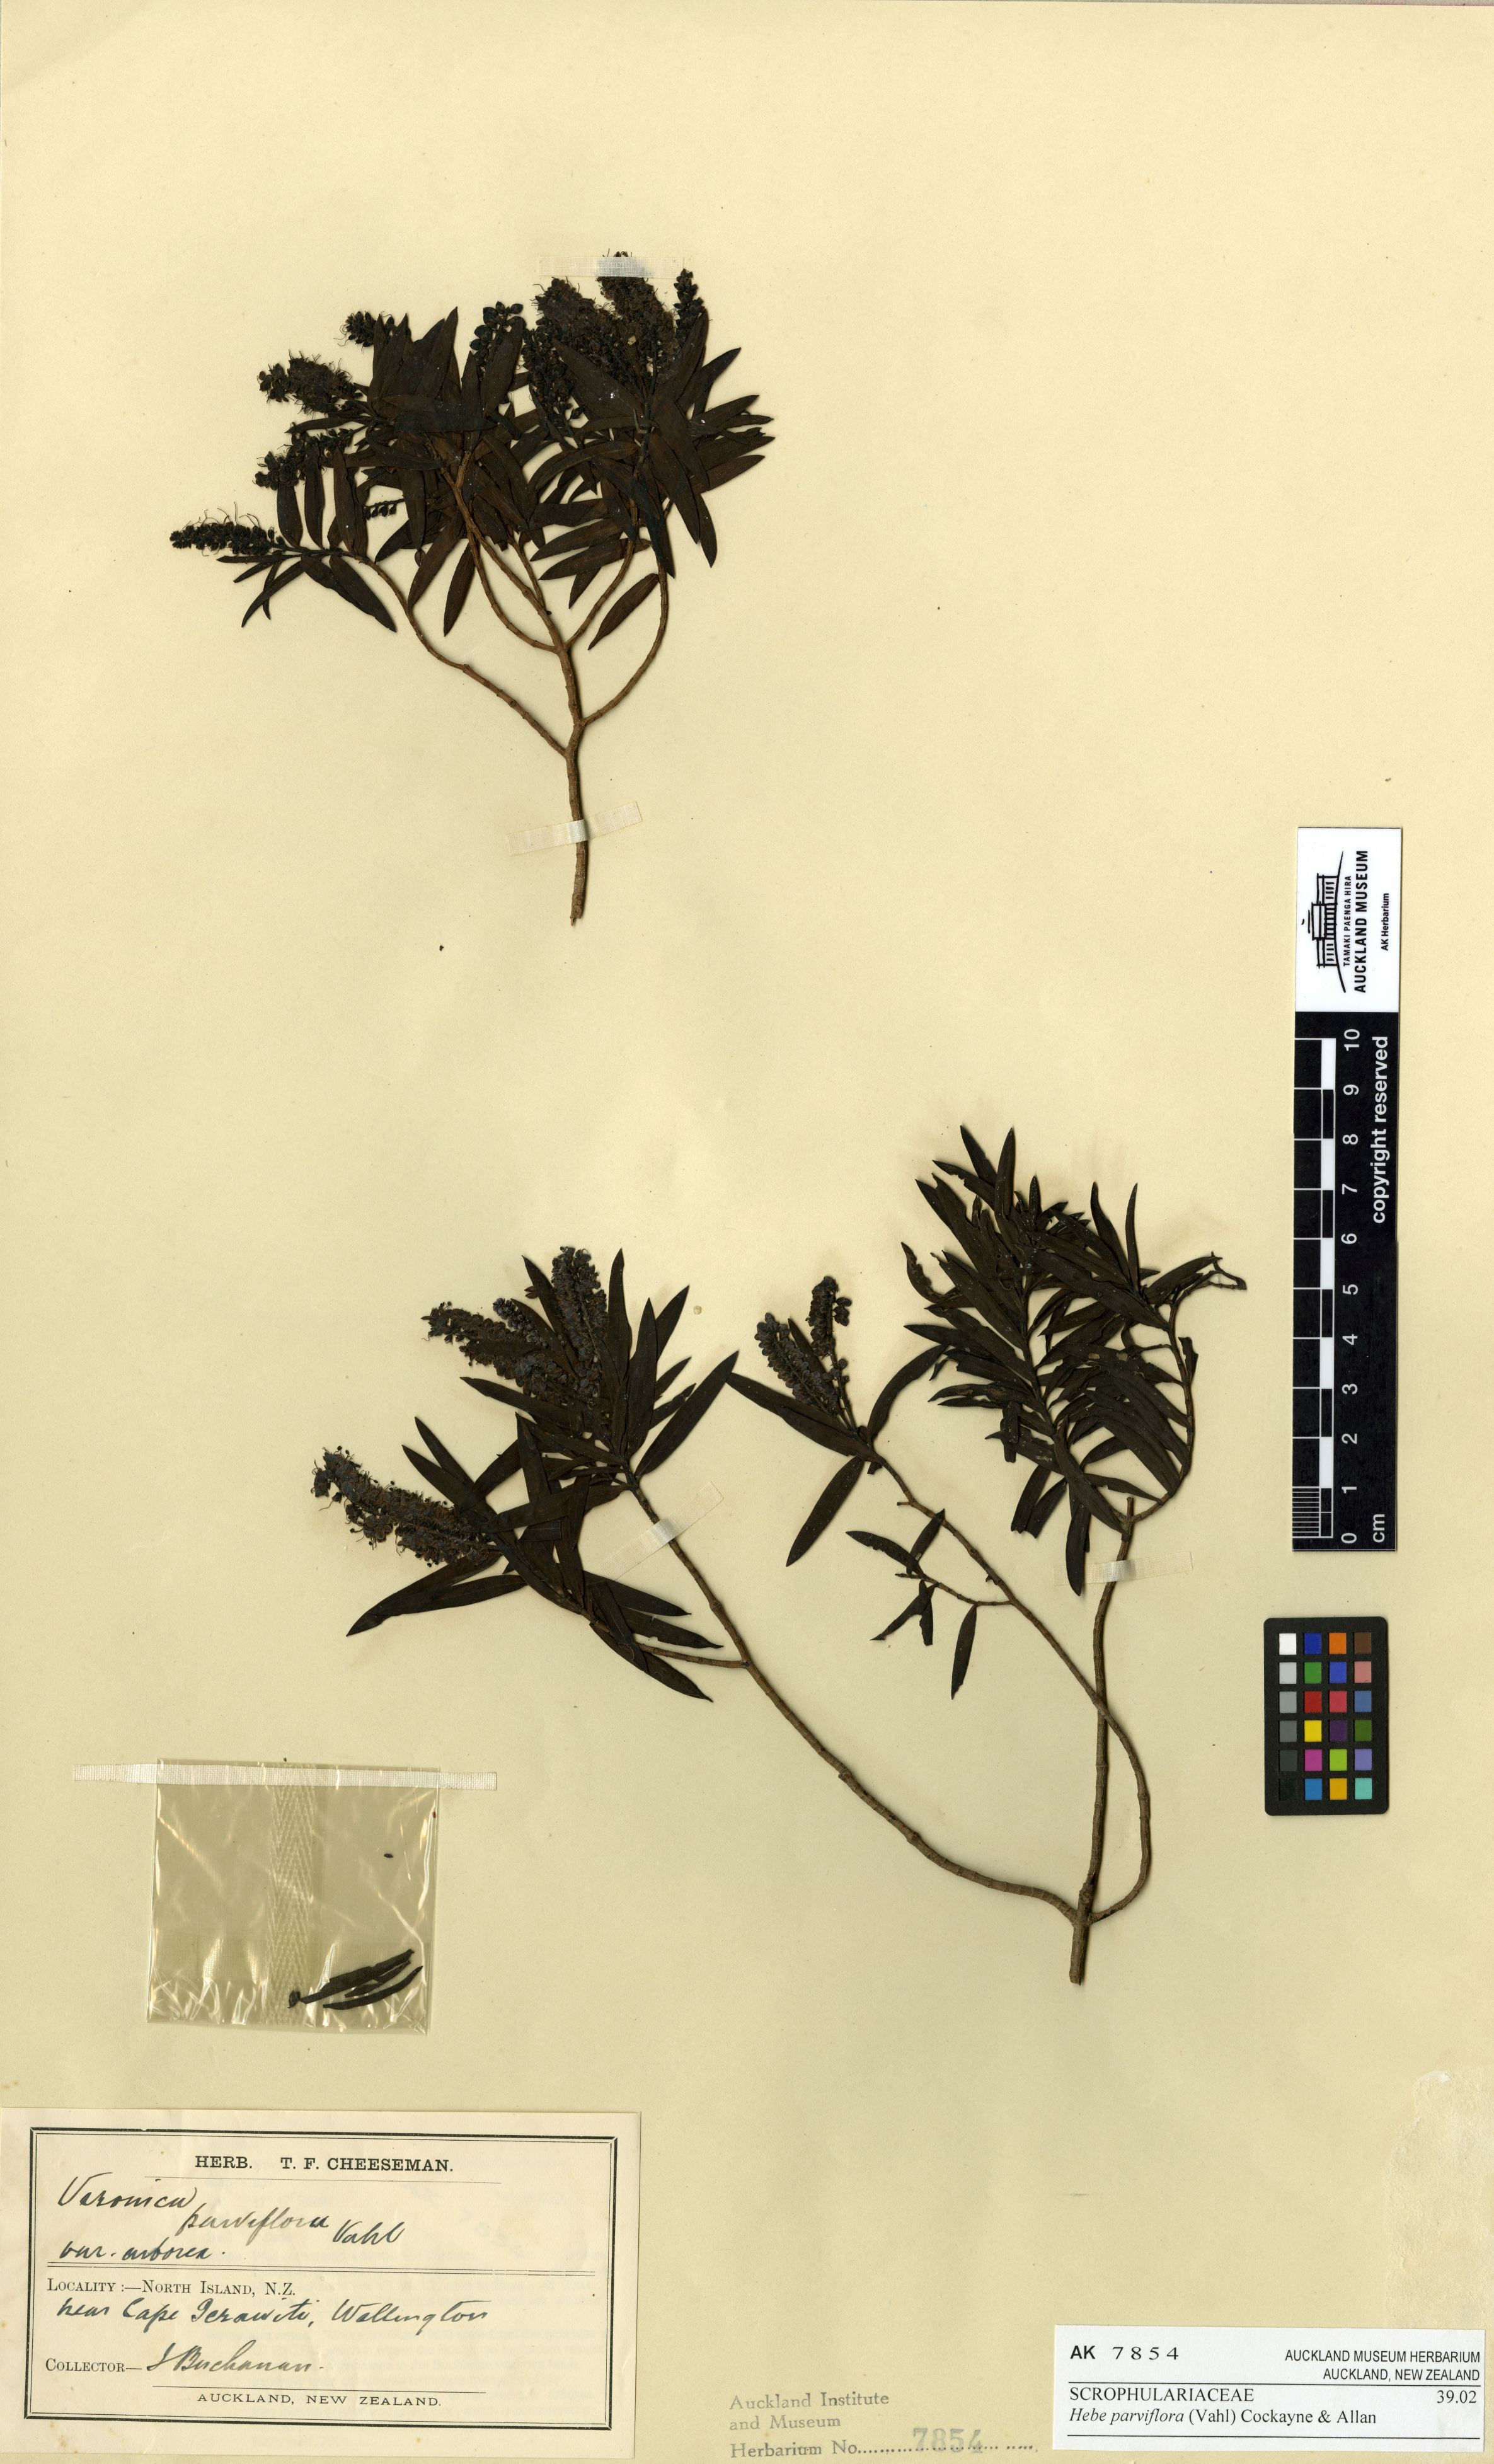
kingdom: Plantae
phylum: Tracheophyta
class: Magnoliopsida
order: Lamiales
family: Plantaginaceae
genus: Veronica
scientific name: Veronica parviflora
